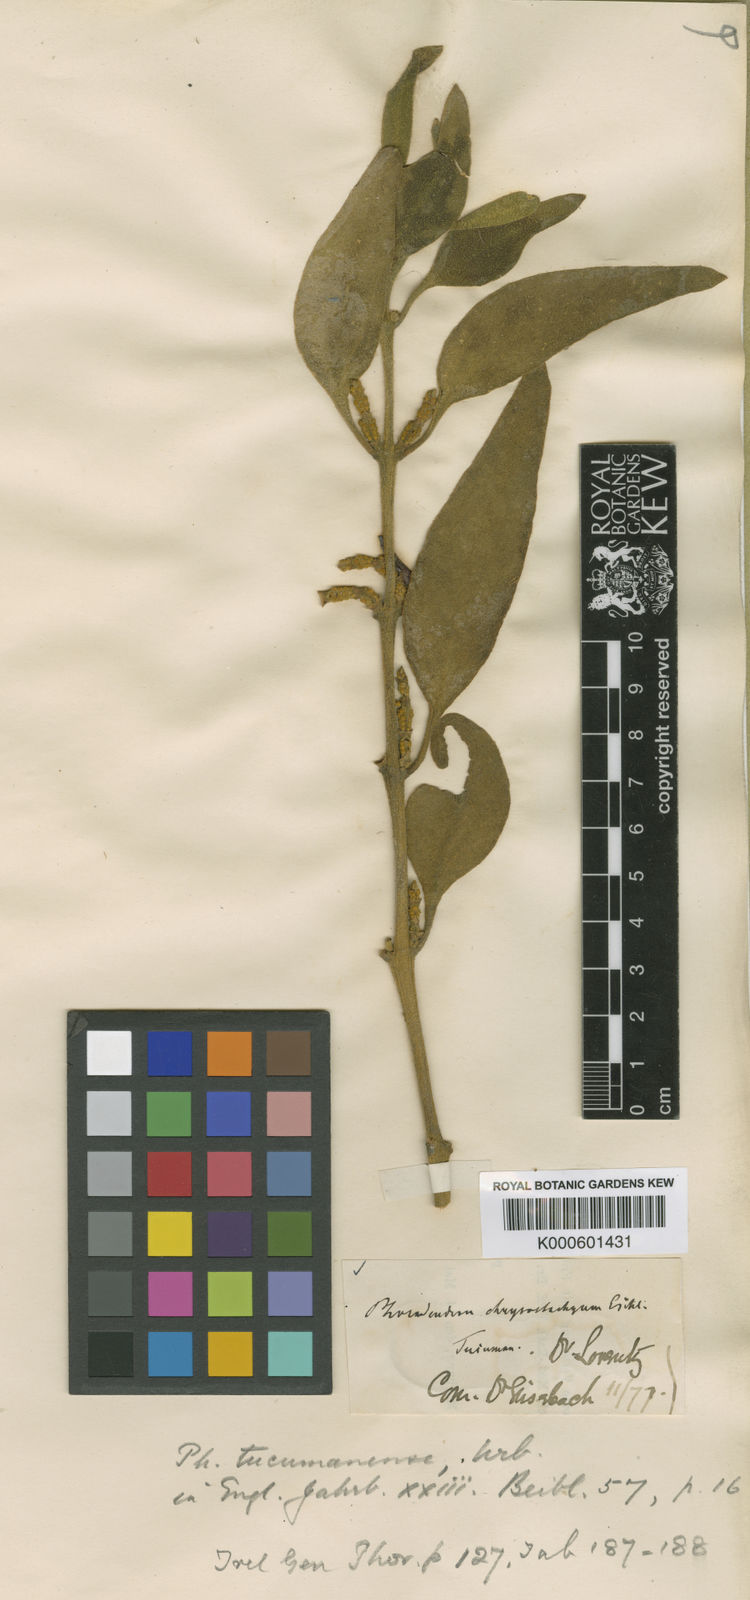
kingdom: Plantae
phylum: Tracheophyta
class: Magnoliopsida
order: Santalales
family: Viscaceae
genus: Phoradendron
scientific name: Phoradendron tucumanense
